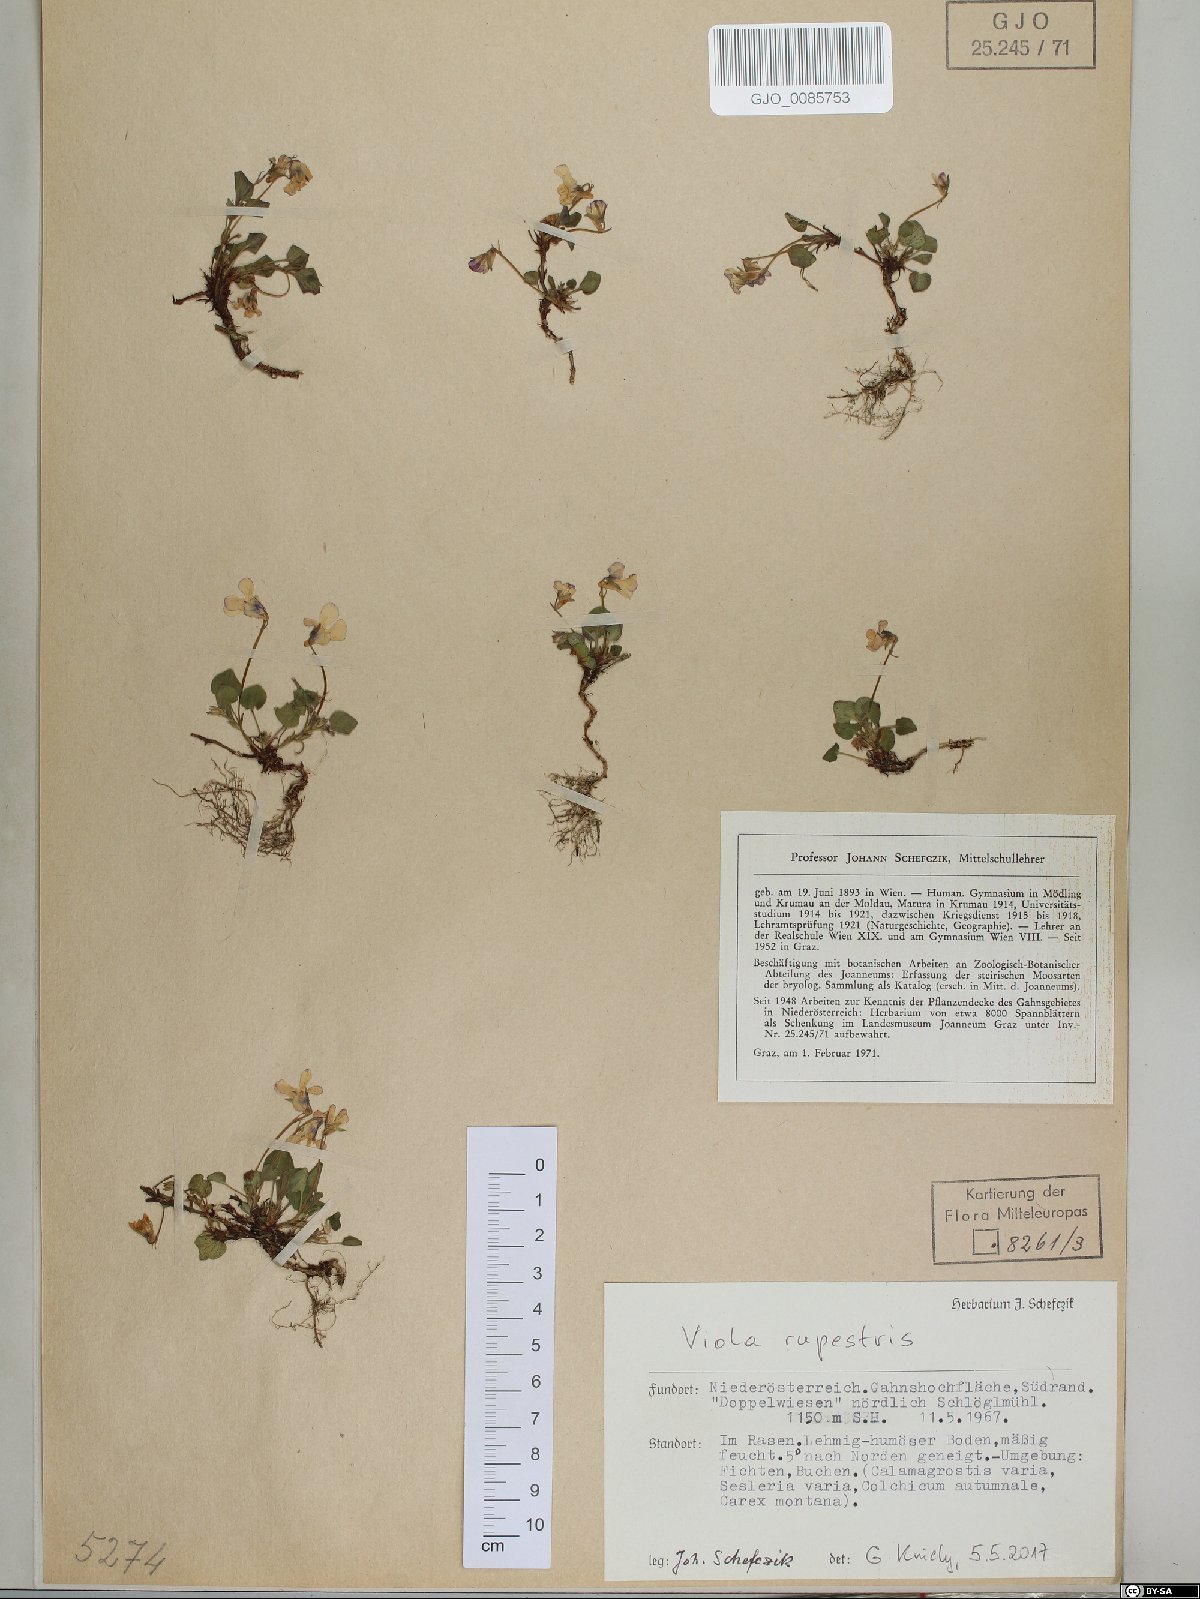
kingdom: Plantae
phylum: Tracheophyta
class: Magnoliopsida
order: Malpighiales
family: Violaceae
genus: Viola
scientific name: Viola rupestris
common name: Teesdale violet
